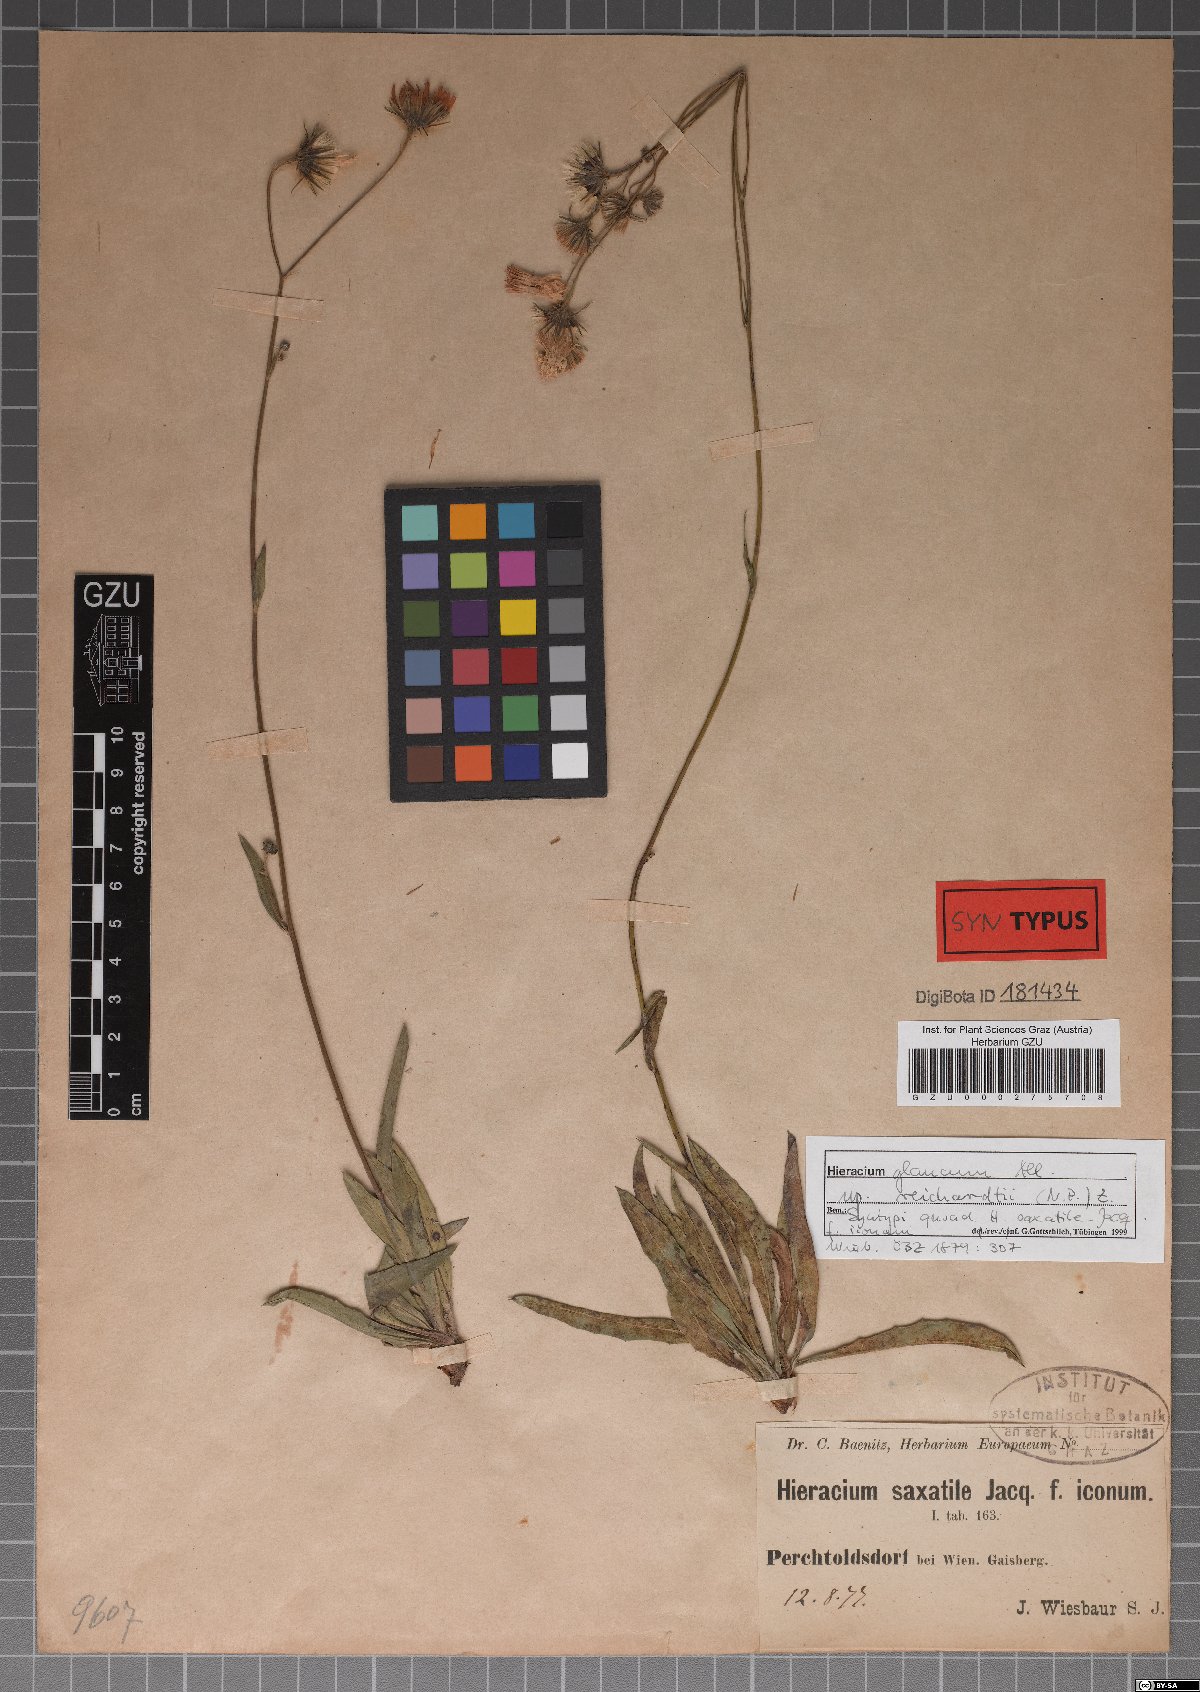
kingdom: Plantae
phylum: Tracheophyta
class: Magnoliopsida
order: Asterales
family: Asteraceae
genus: Hieracium
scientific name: Hieracium saxatile
